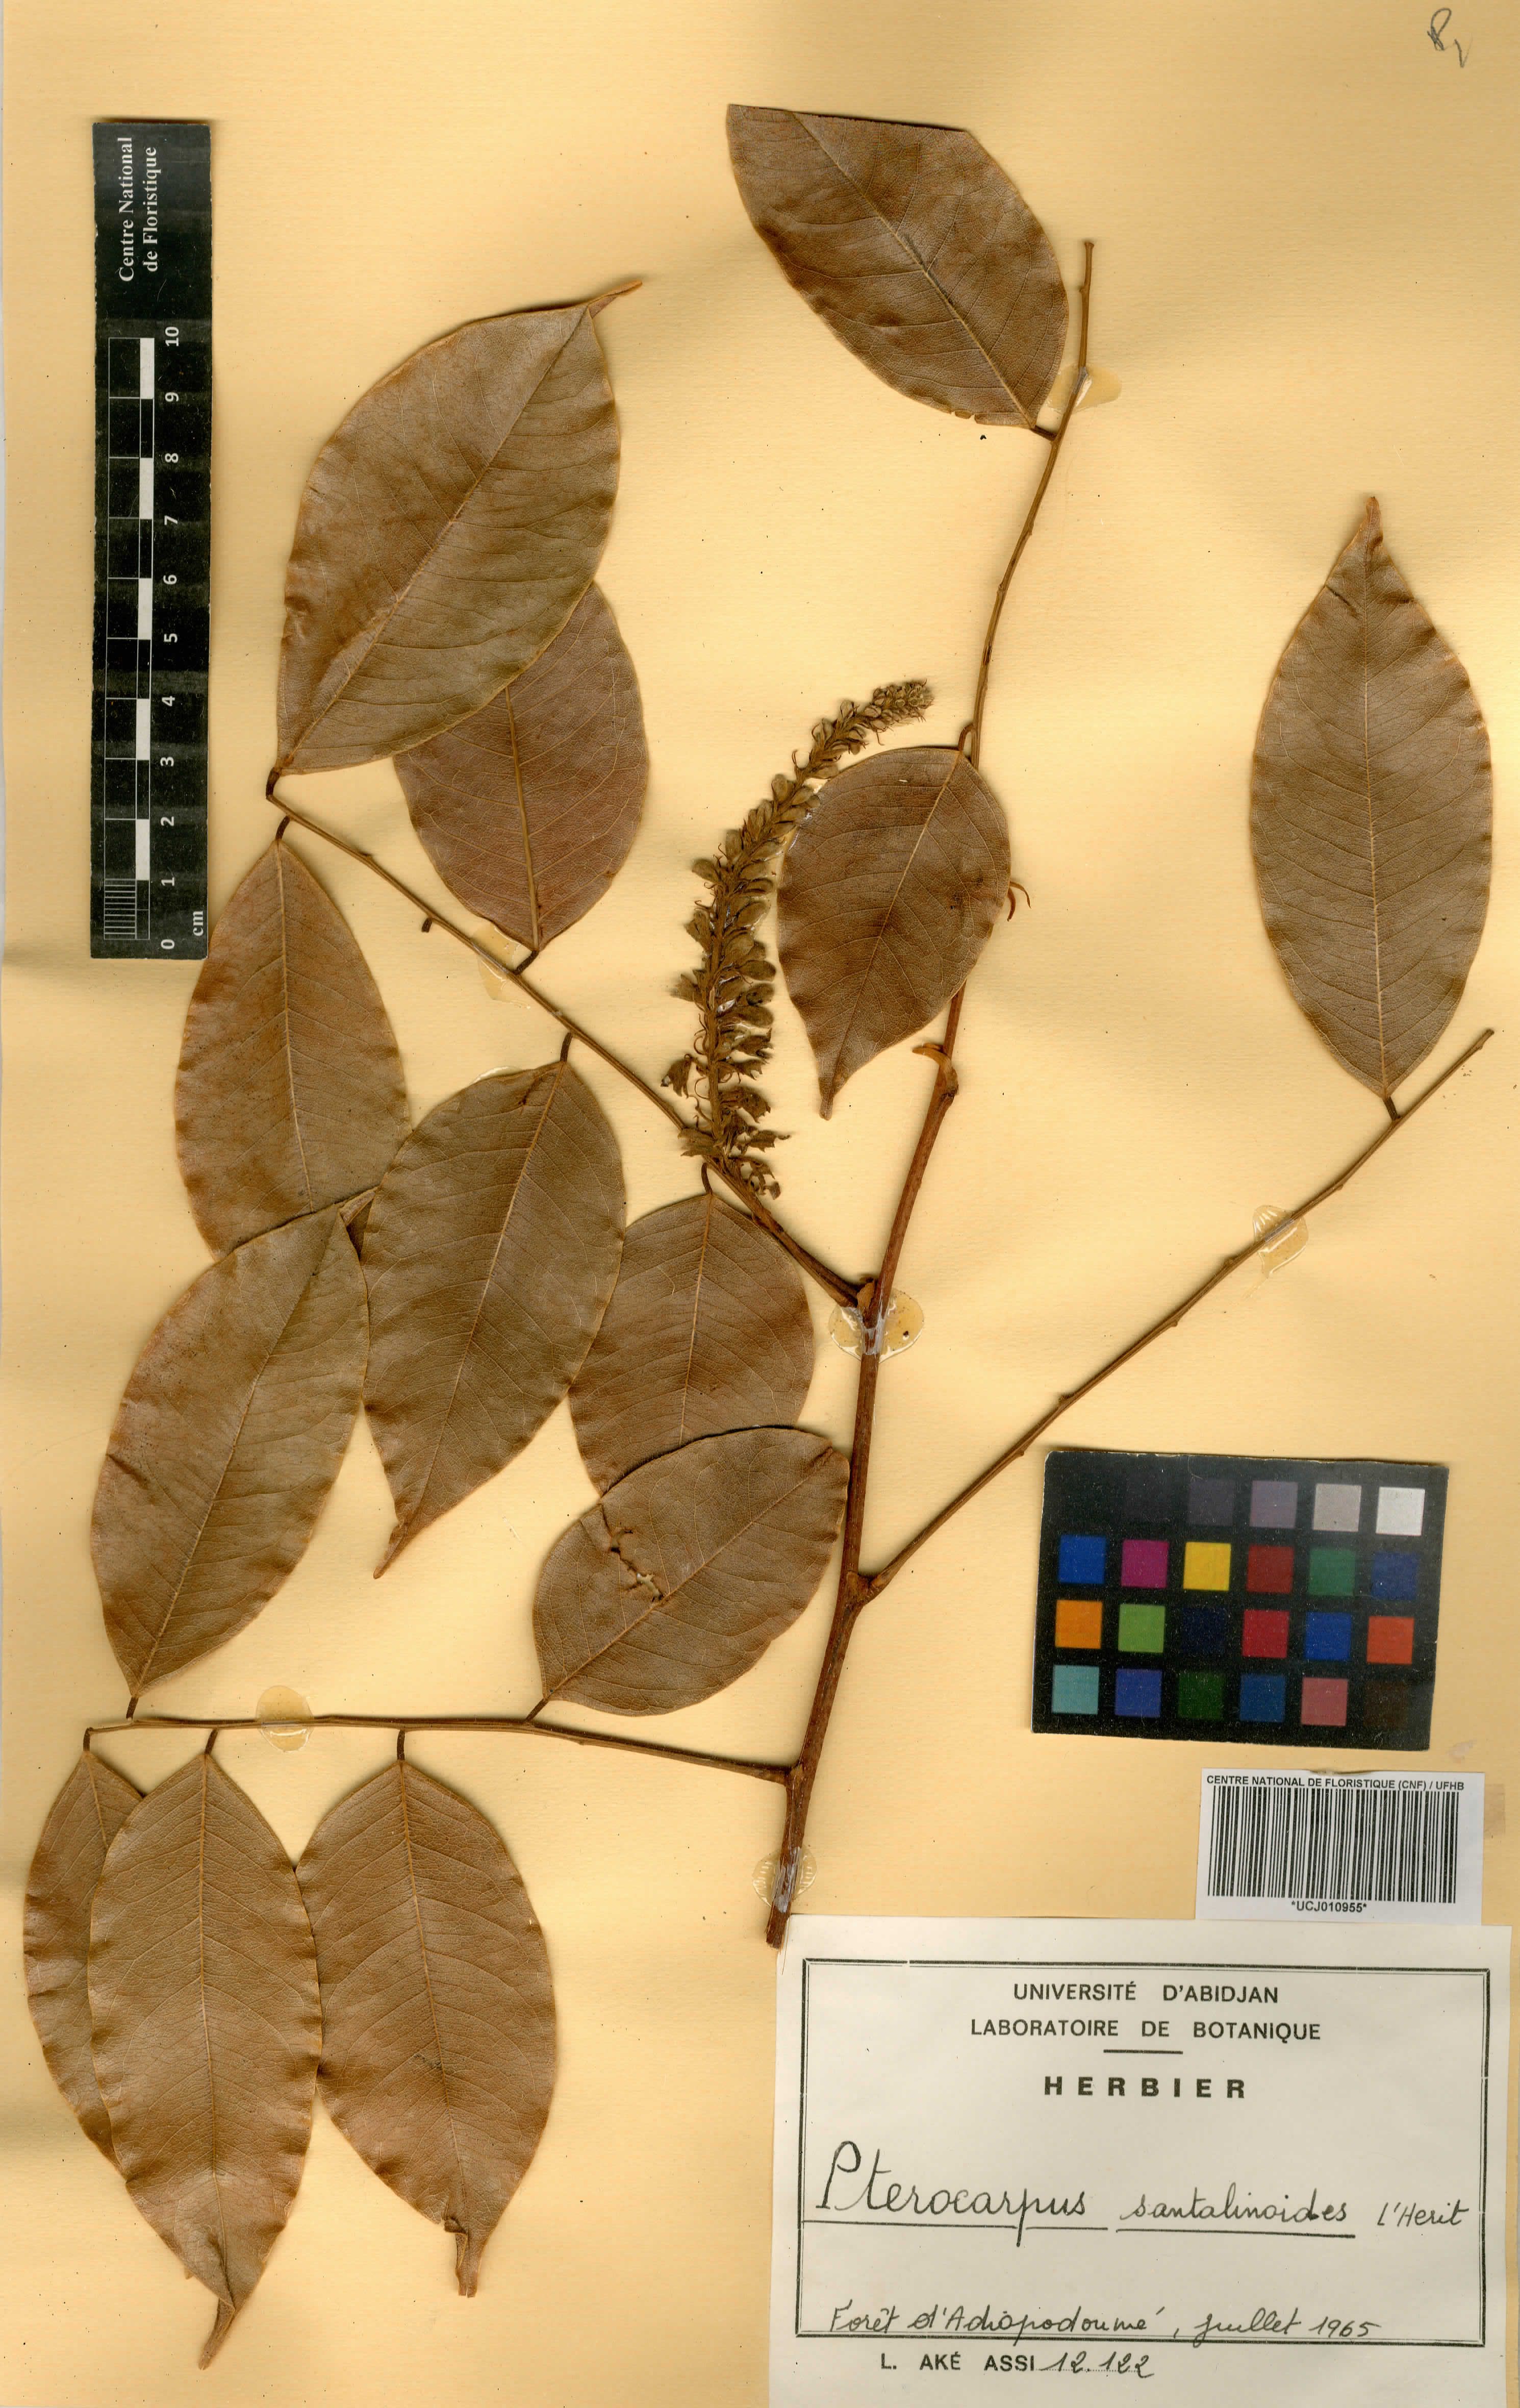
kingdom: Plantae
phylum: Tracheophyta
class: Magnoliopsida
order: Fabales
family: Fabaceae
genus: Pterocarpus
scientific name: Pterocarpus santalinoides
